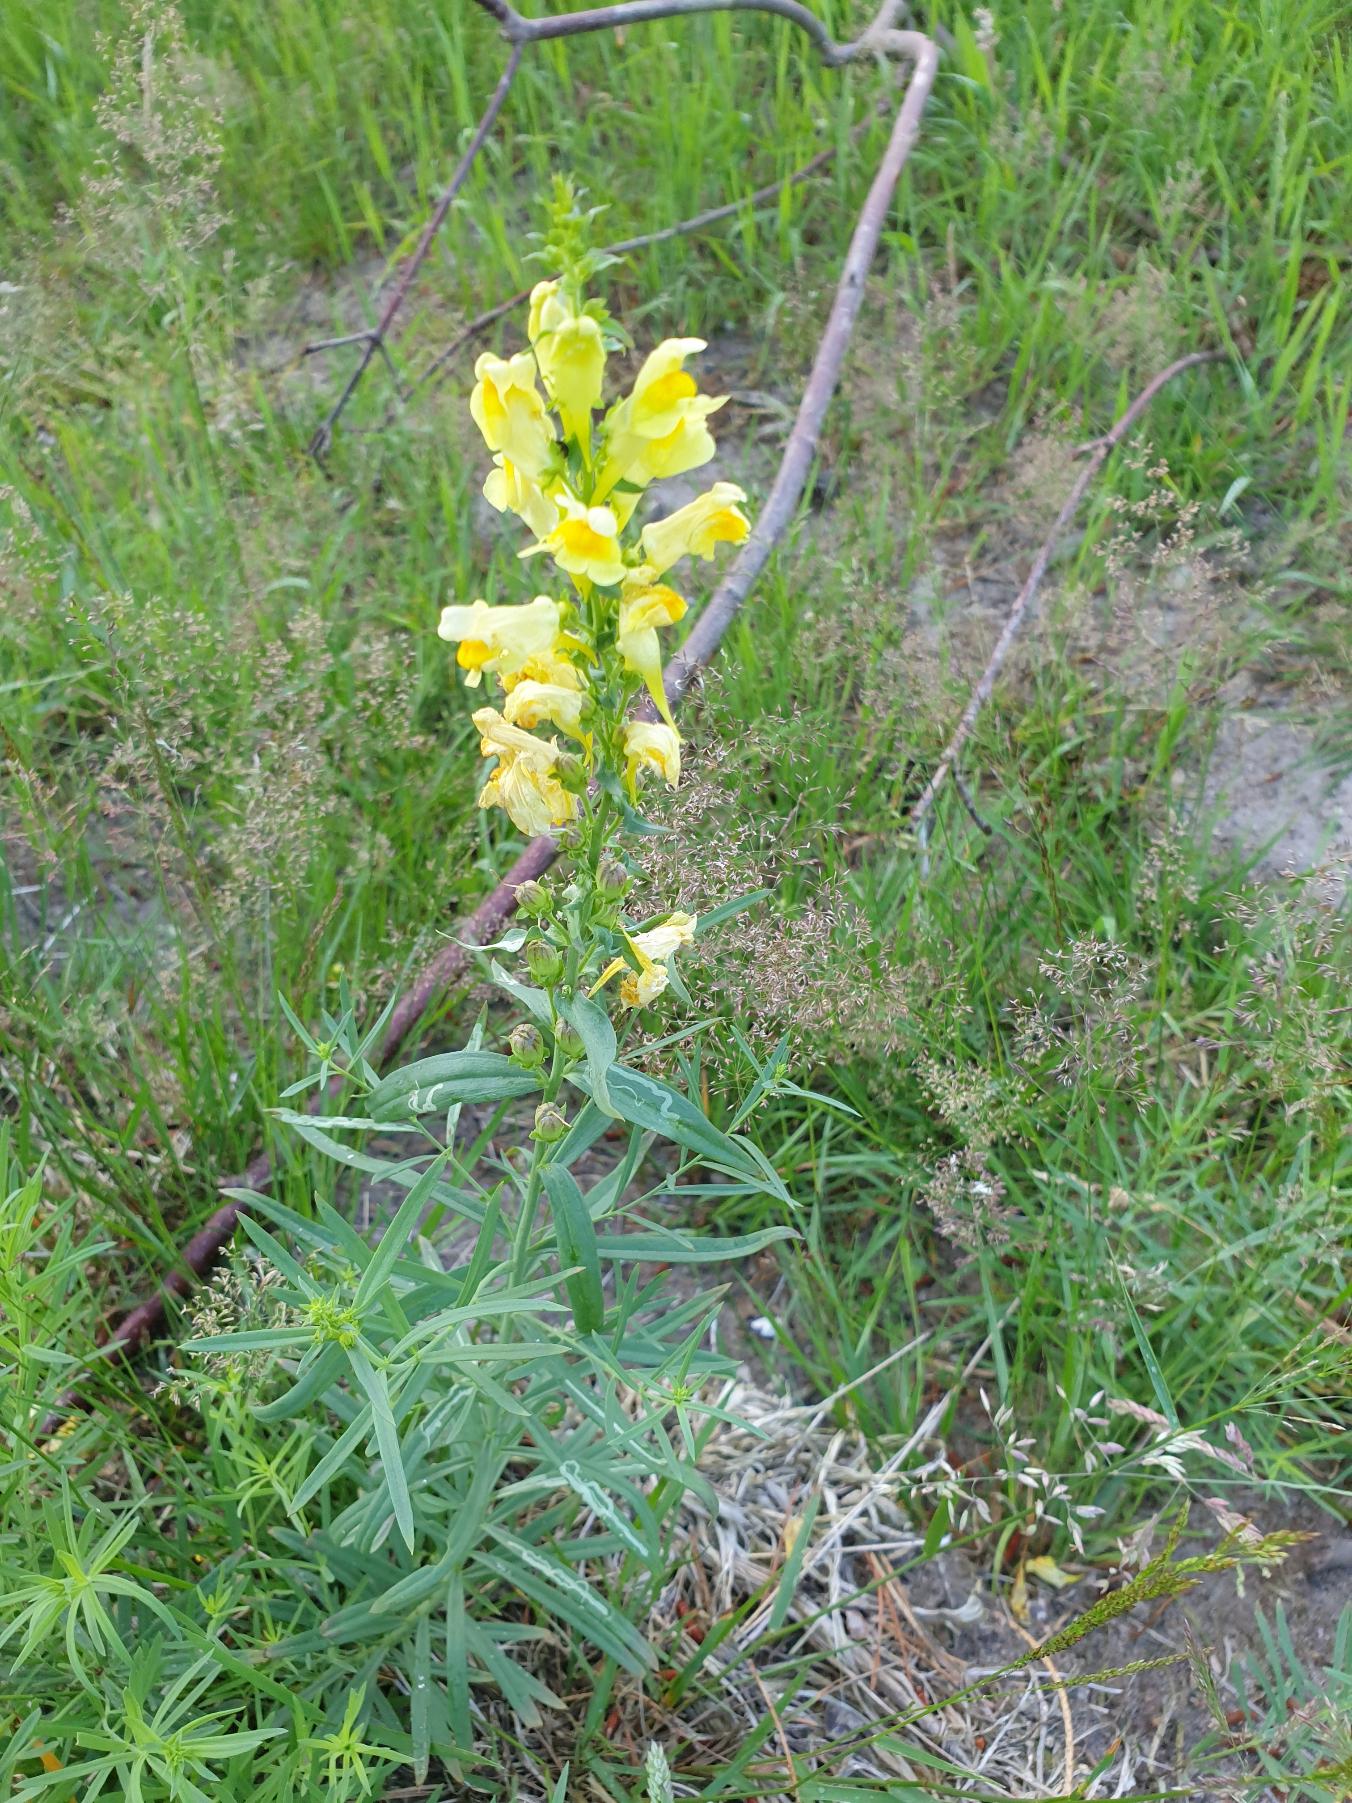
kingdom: Plantae
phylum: Tracheophyta
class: Magnoliopsida
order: Lamiales
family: Plantaginaceae
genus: Linaria
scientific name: Linaria vulgaris
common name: Almindelig torskemund
